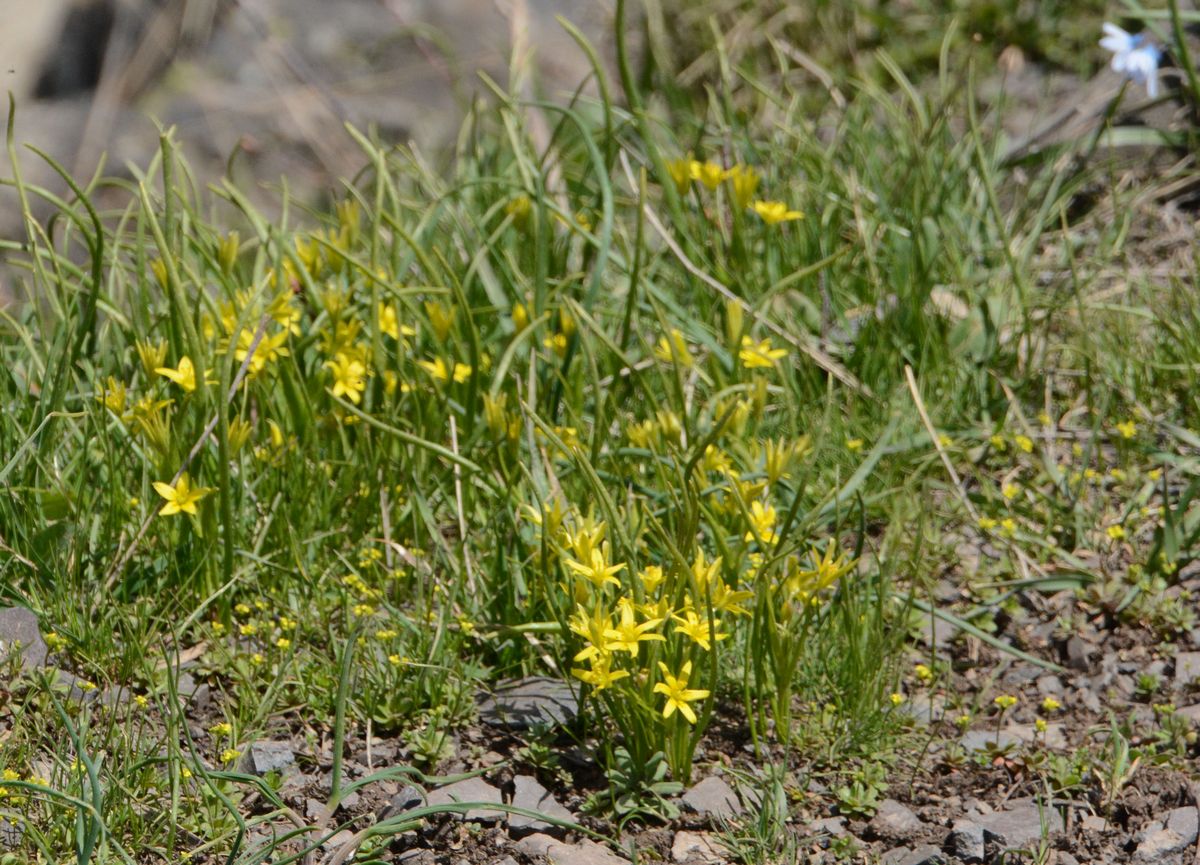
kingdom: Plantae
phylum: Tracheophyta
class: Liliopsida
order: Liliales
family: Liliaceae
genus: Gagea
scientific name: Gagea glacialis
